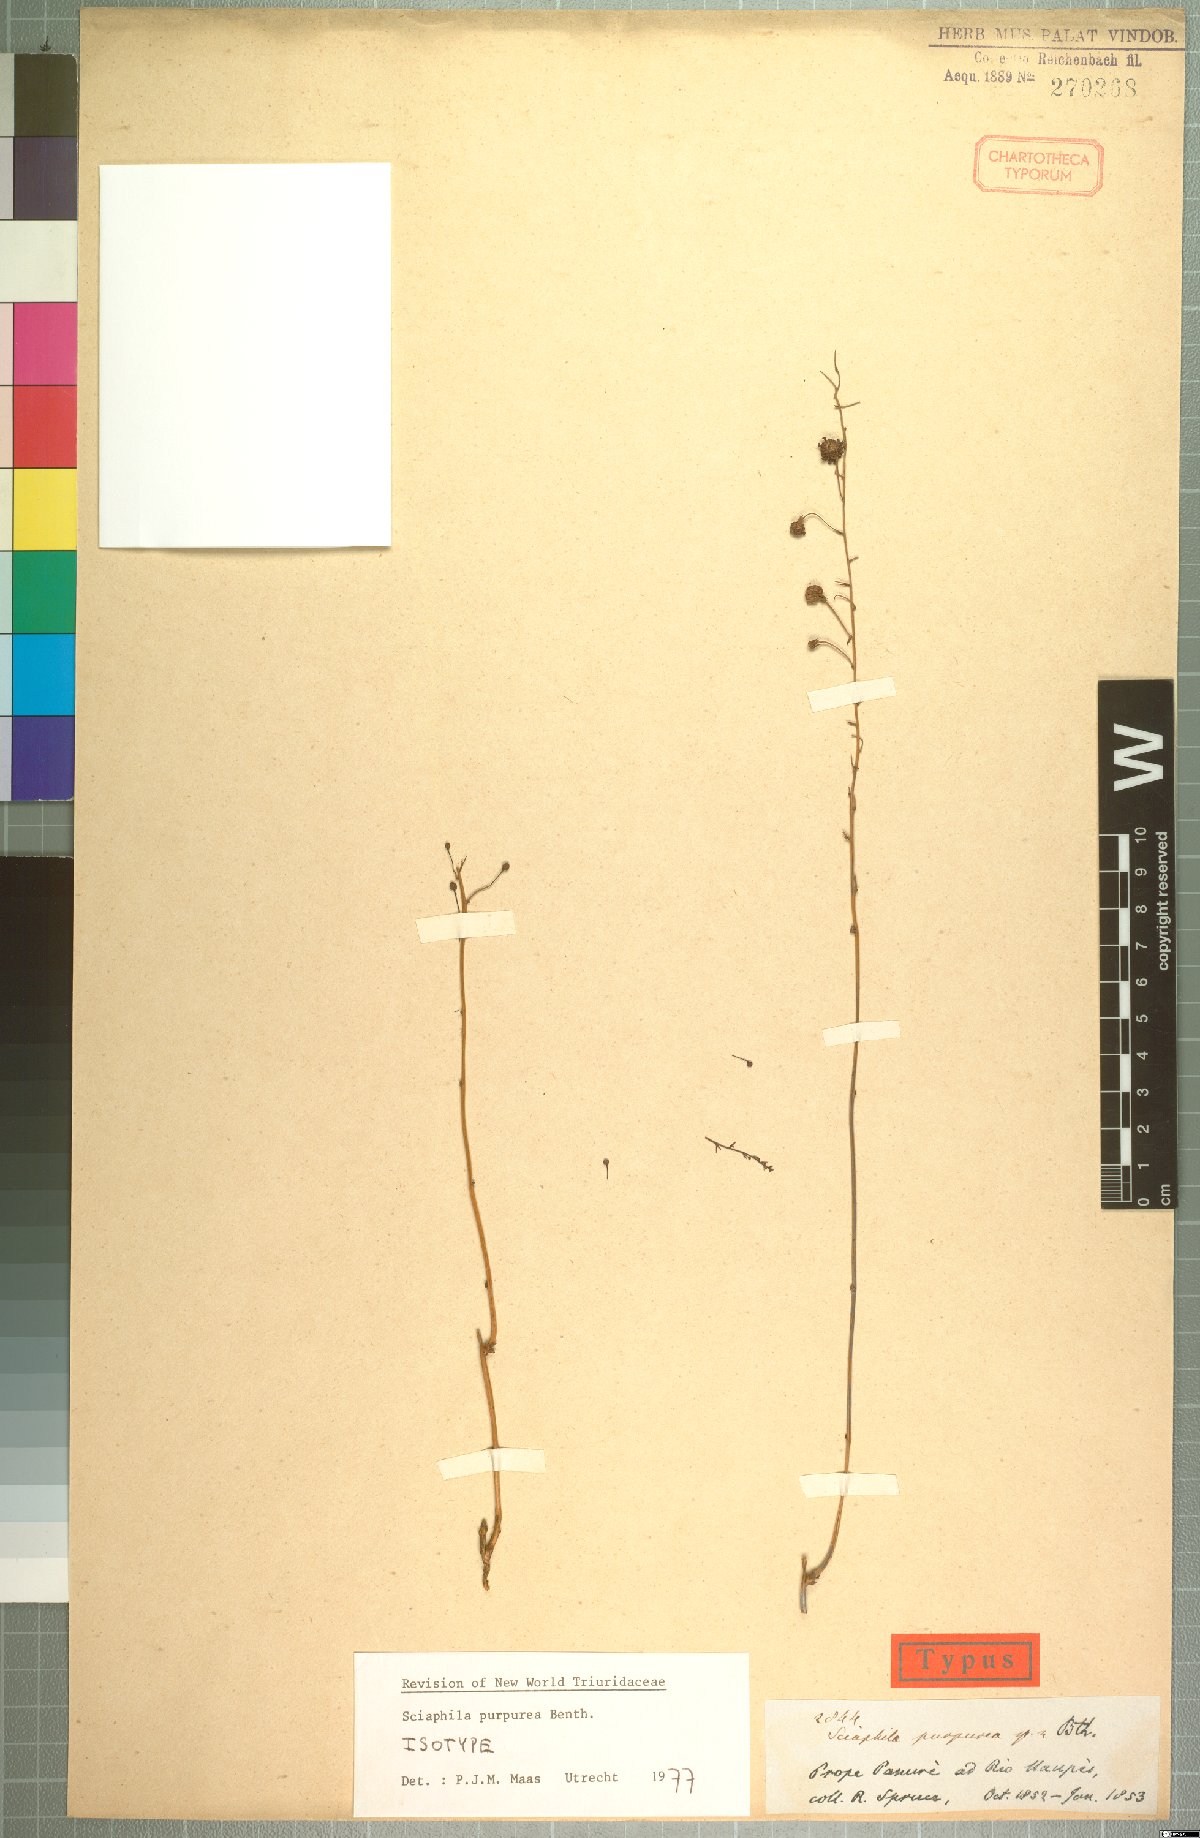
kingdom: Plantae
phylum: Tracheophyta
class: Liliopsida
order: Pandanales
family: Triuridaceae
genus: Sciaphila
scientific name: Sciaphila purpurea
